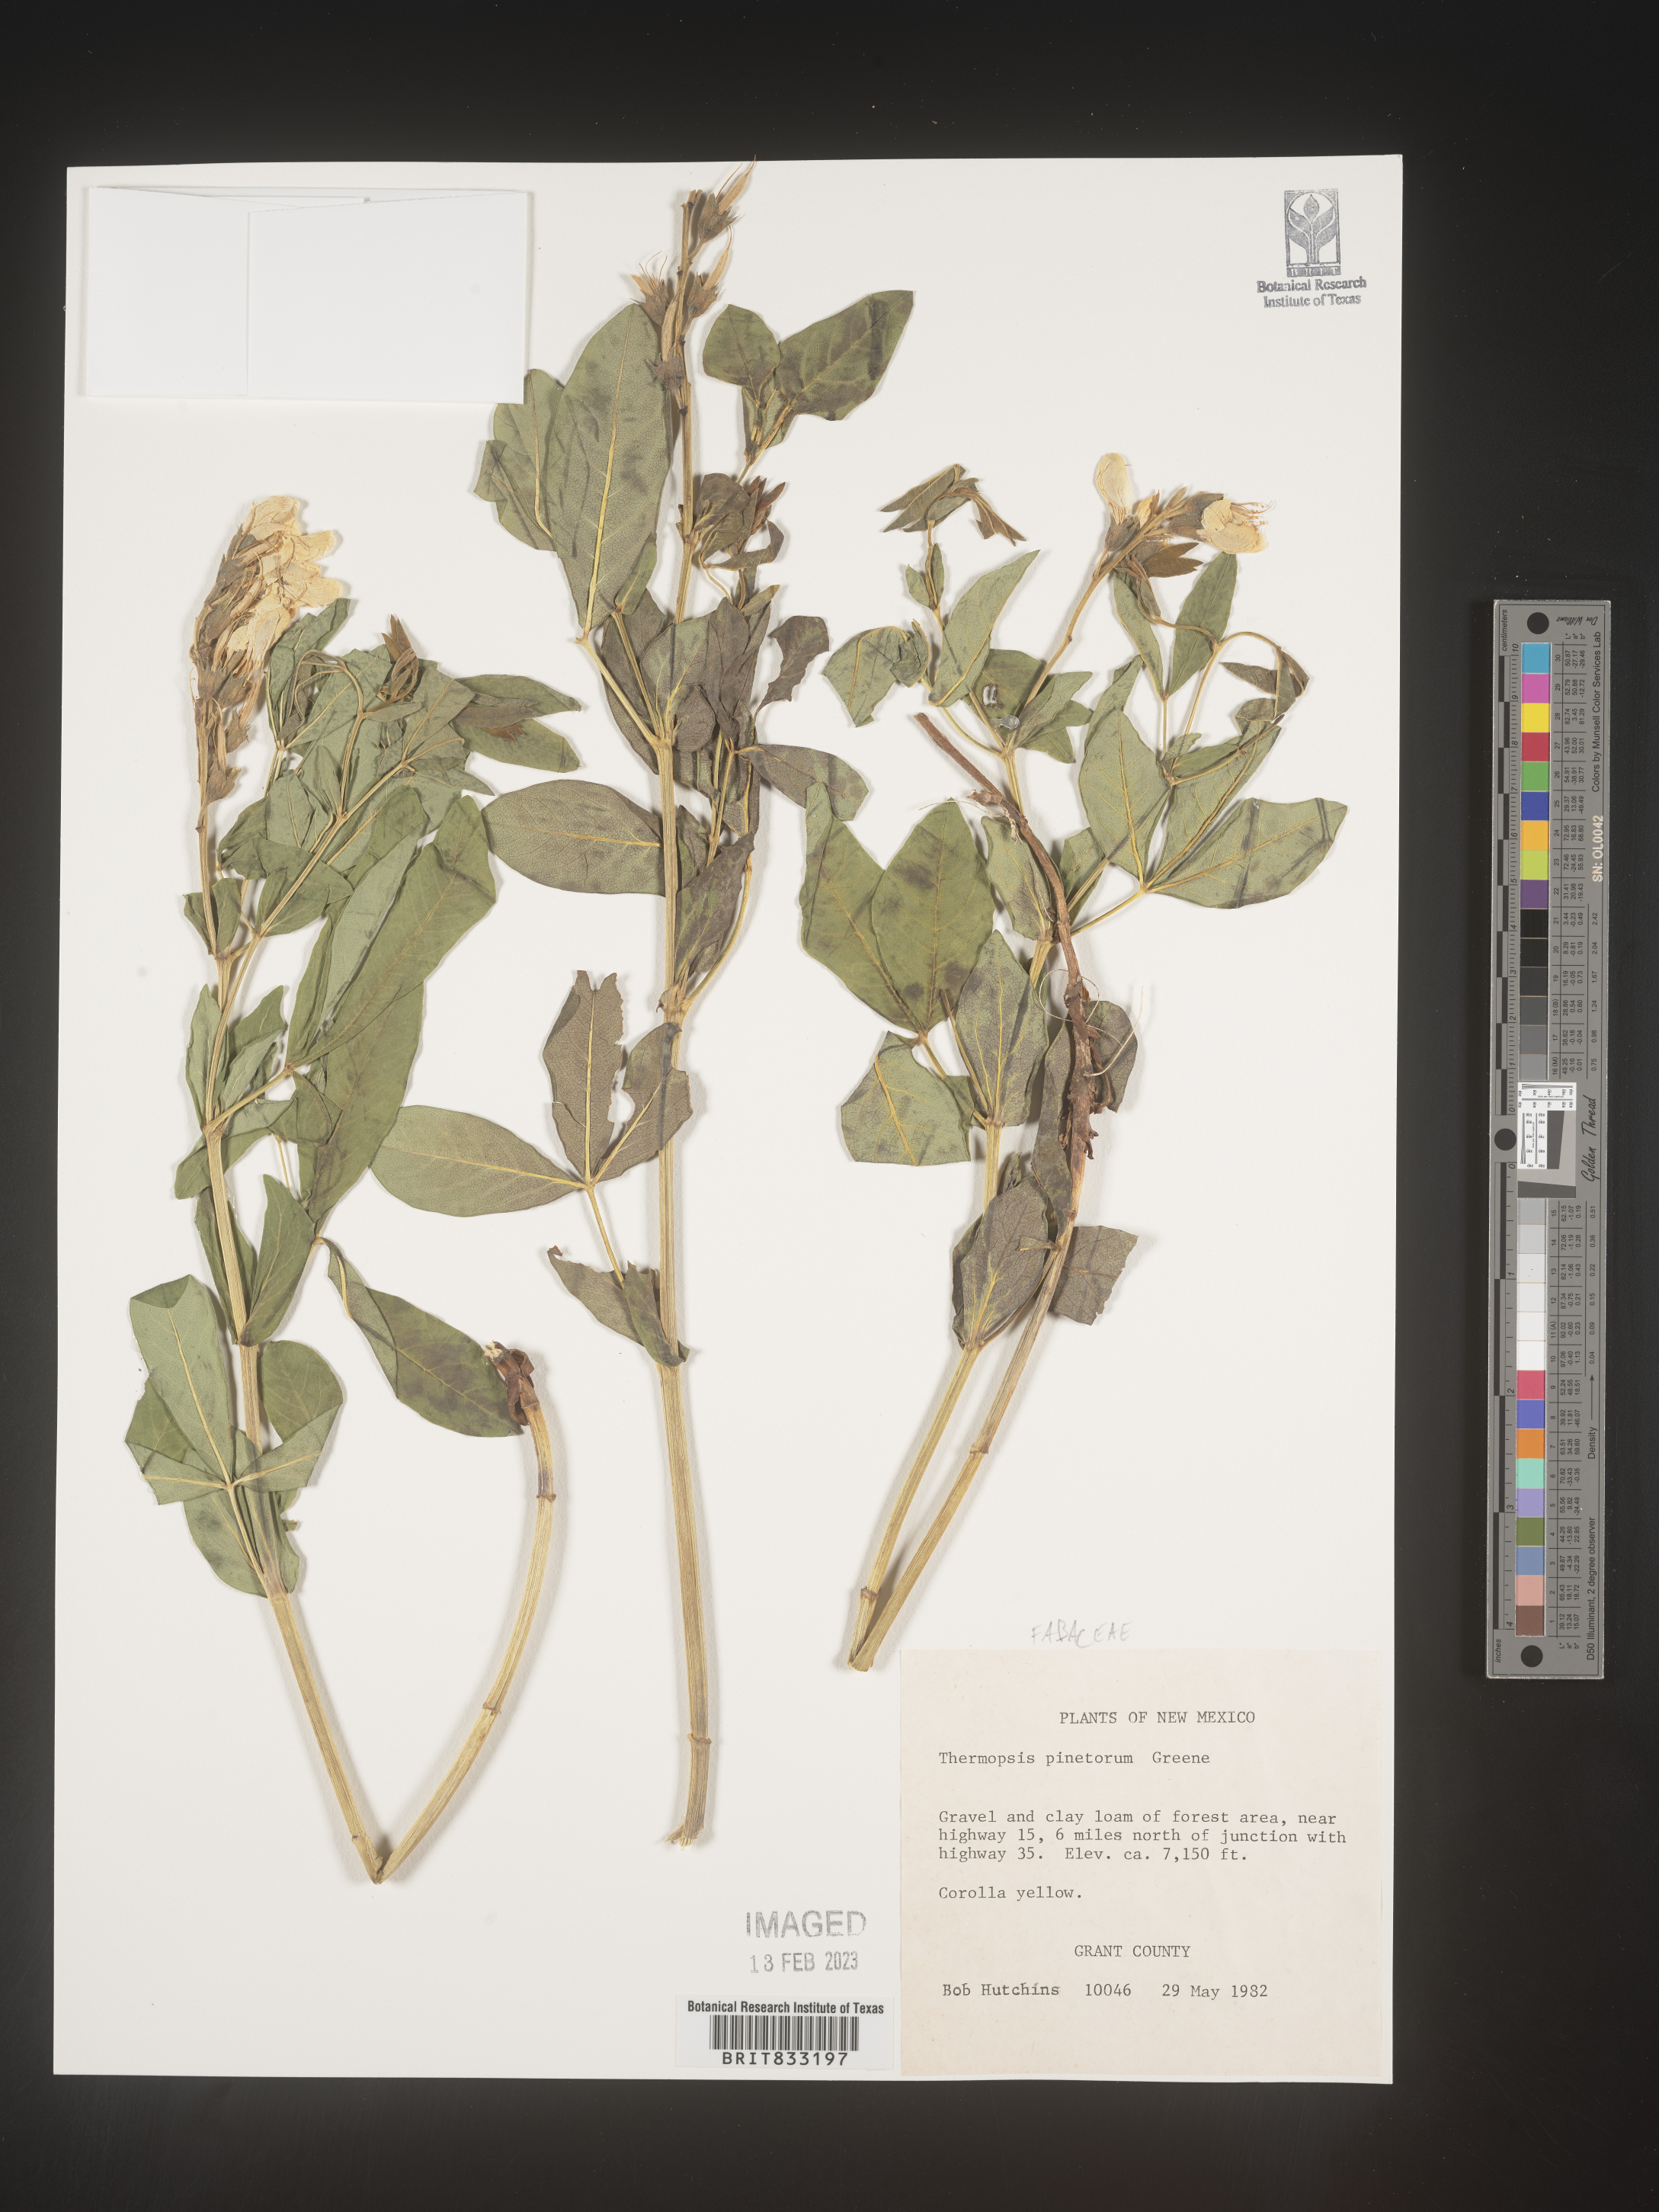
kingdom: Plantae
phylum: Tracheophyta
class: Magnoliopsida
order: Fabales
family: Fabaceae
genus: Thermopsis
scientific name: Thermopsis rhombifolia
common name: Circle-pod-pea
